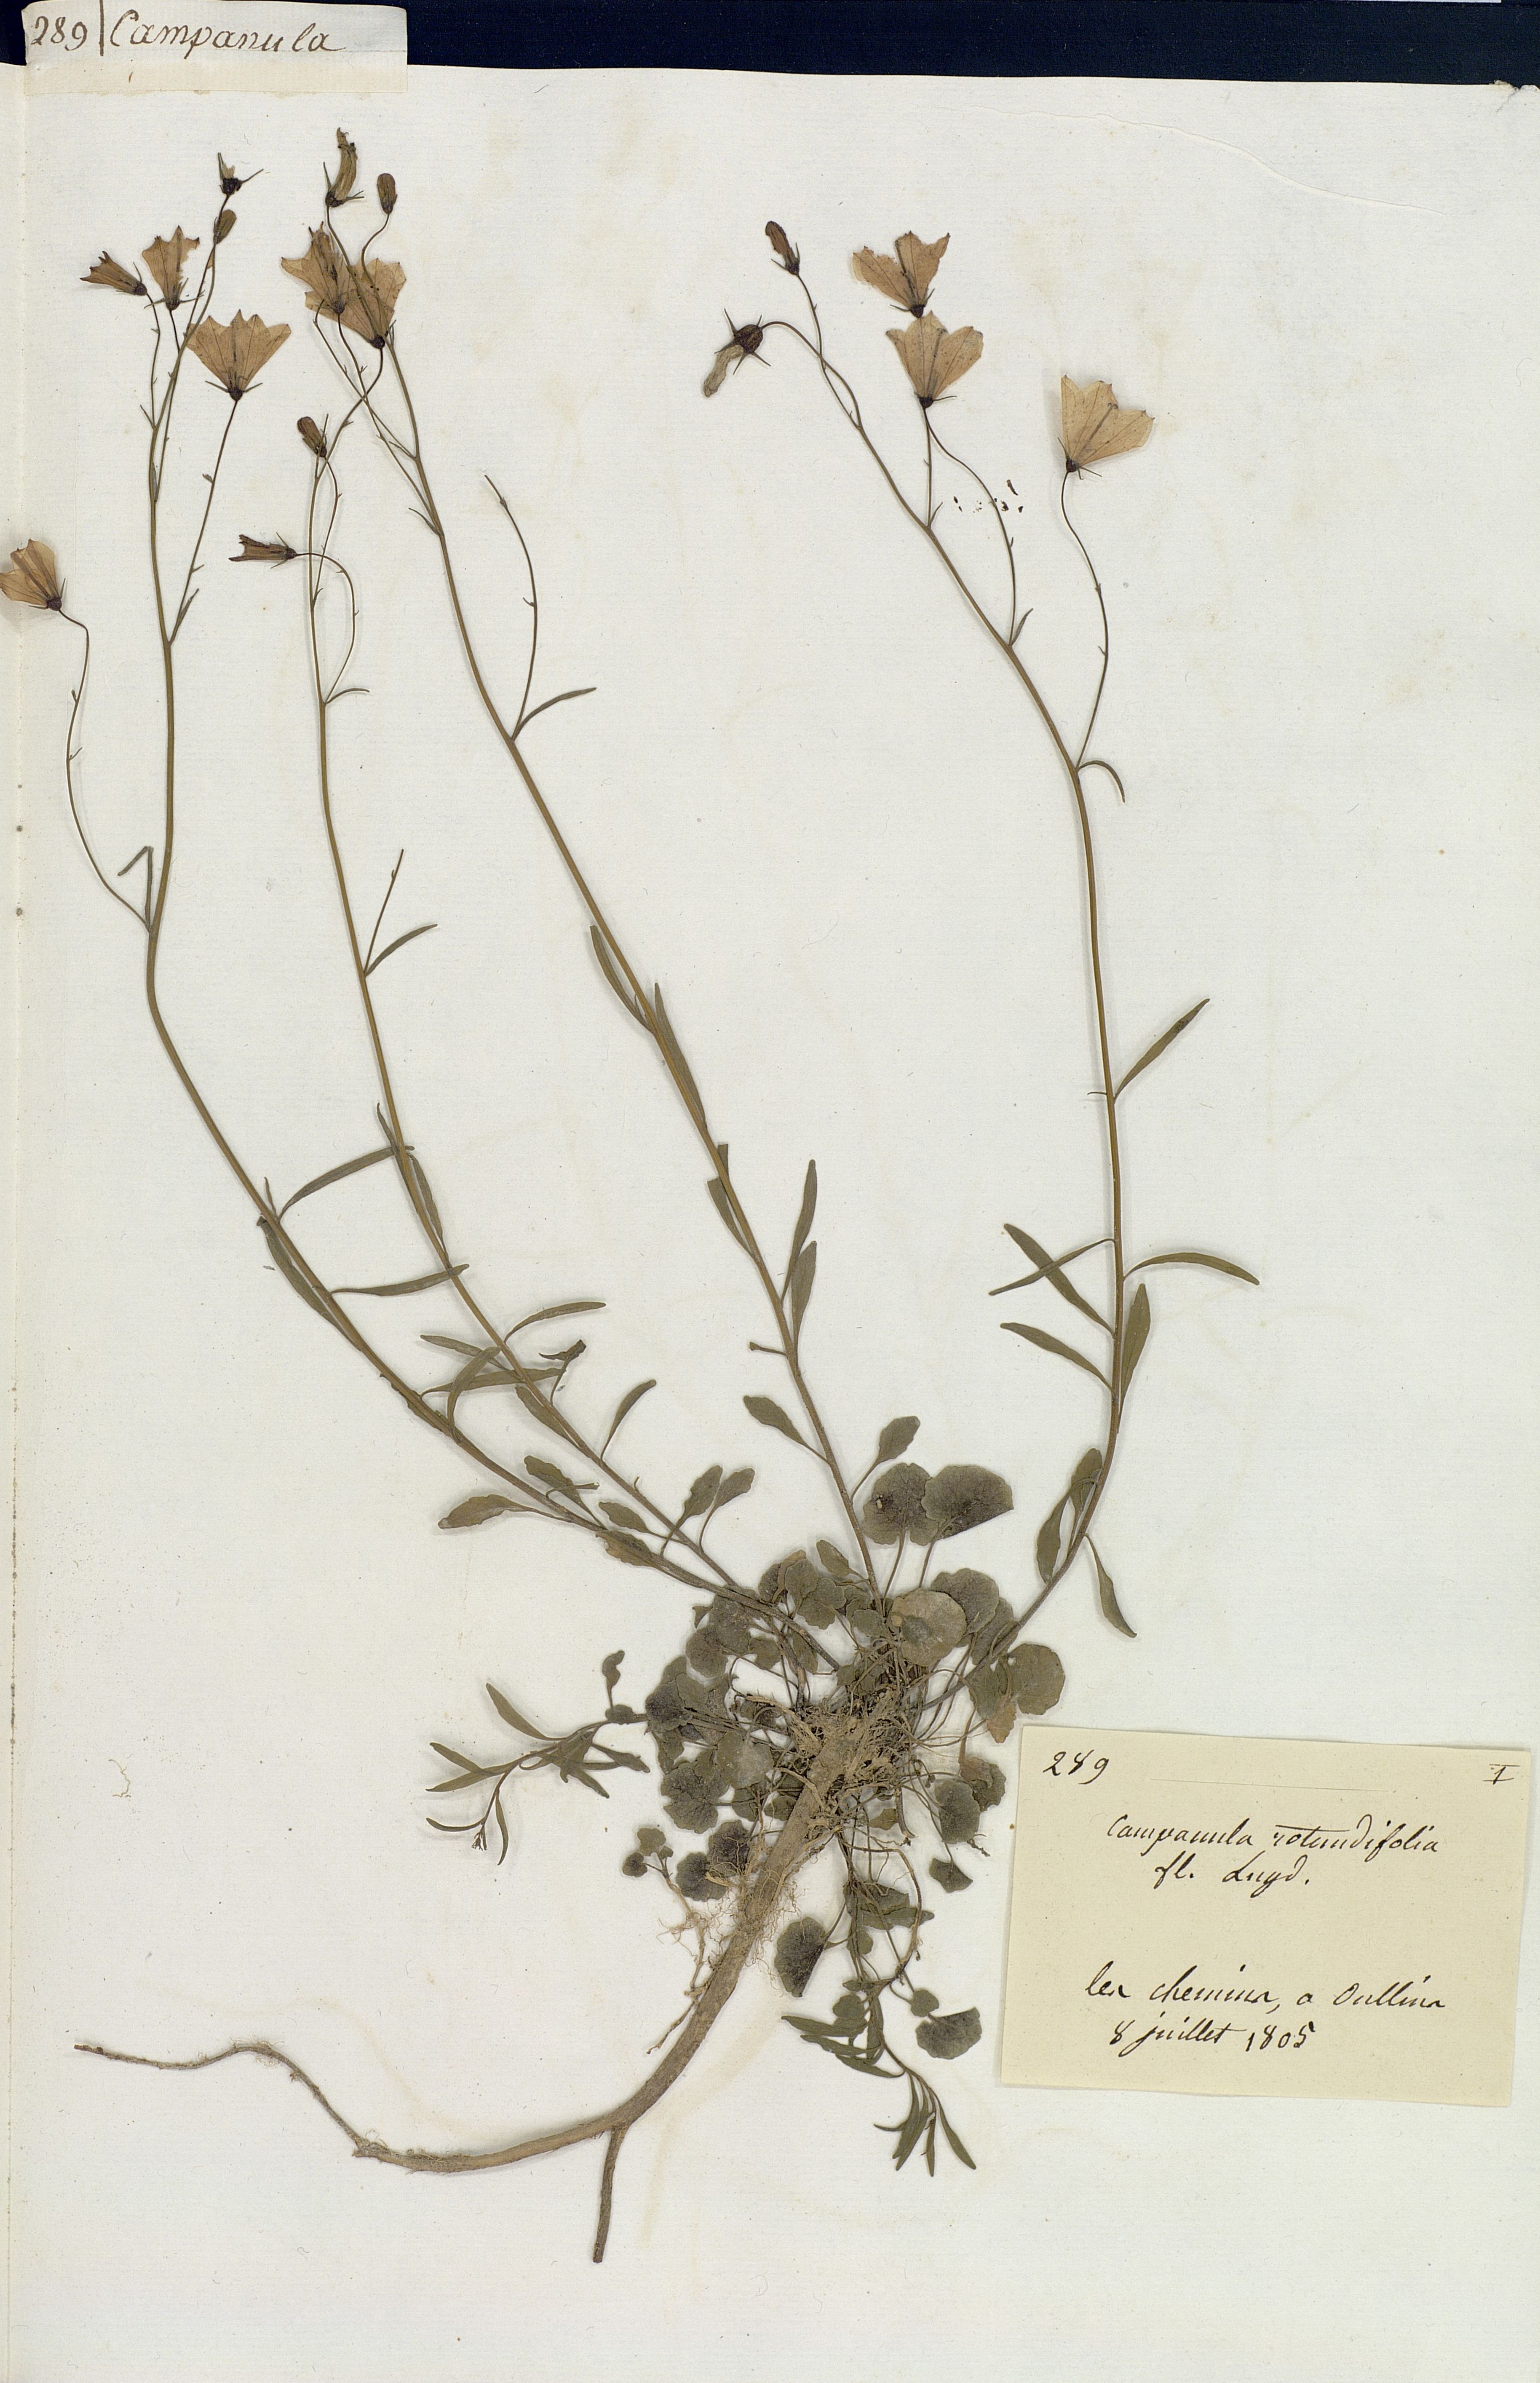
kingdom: Plantae
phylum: Tracheophyta
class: Magnoliopsida
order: Asterales
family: Campanulaceae
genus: Campanula
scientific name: Campanula rotundifolia
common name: Harebell
